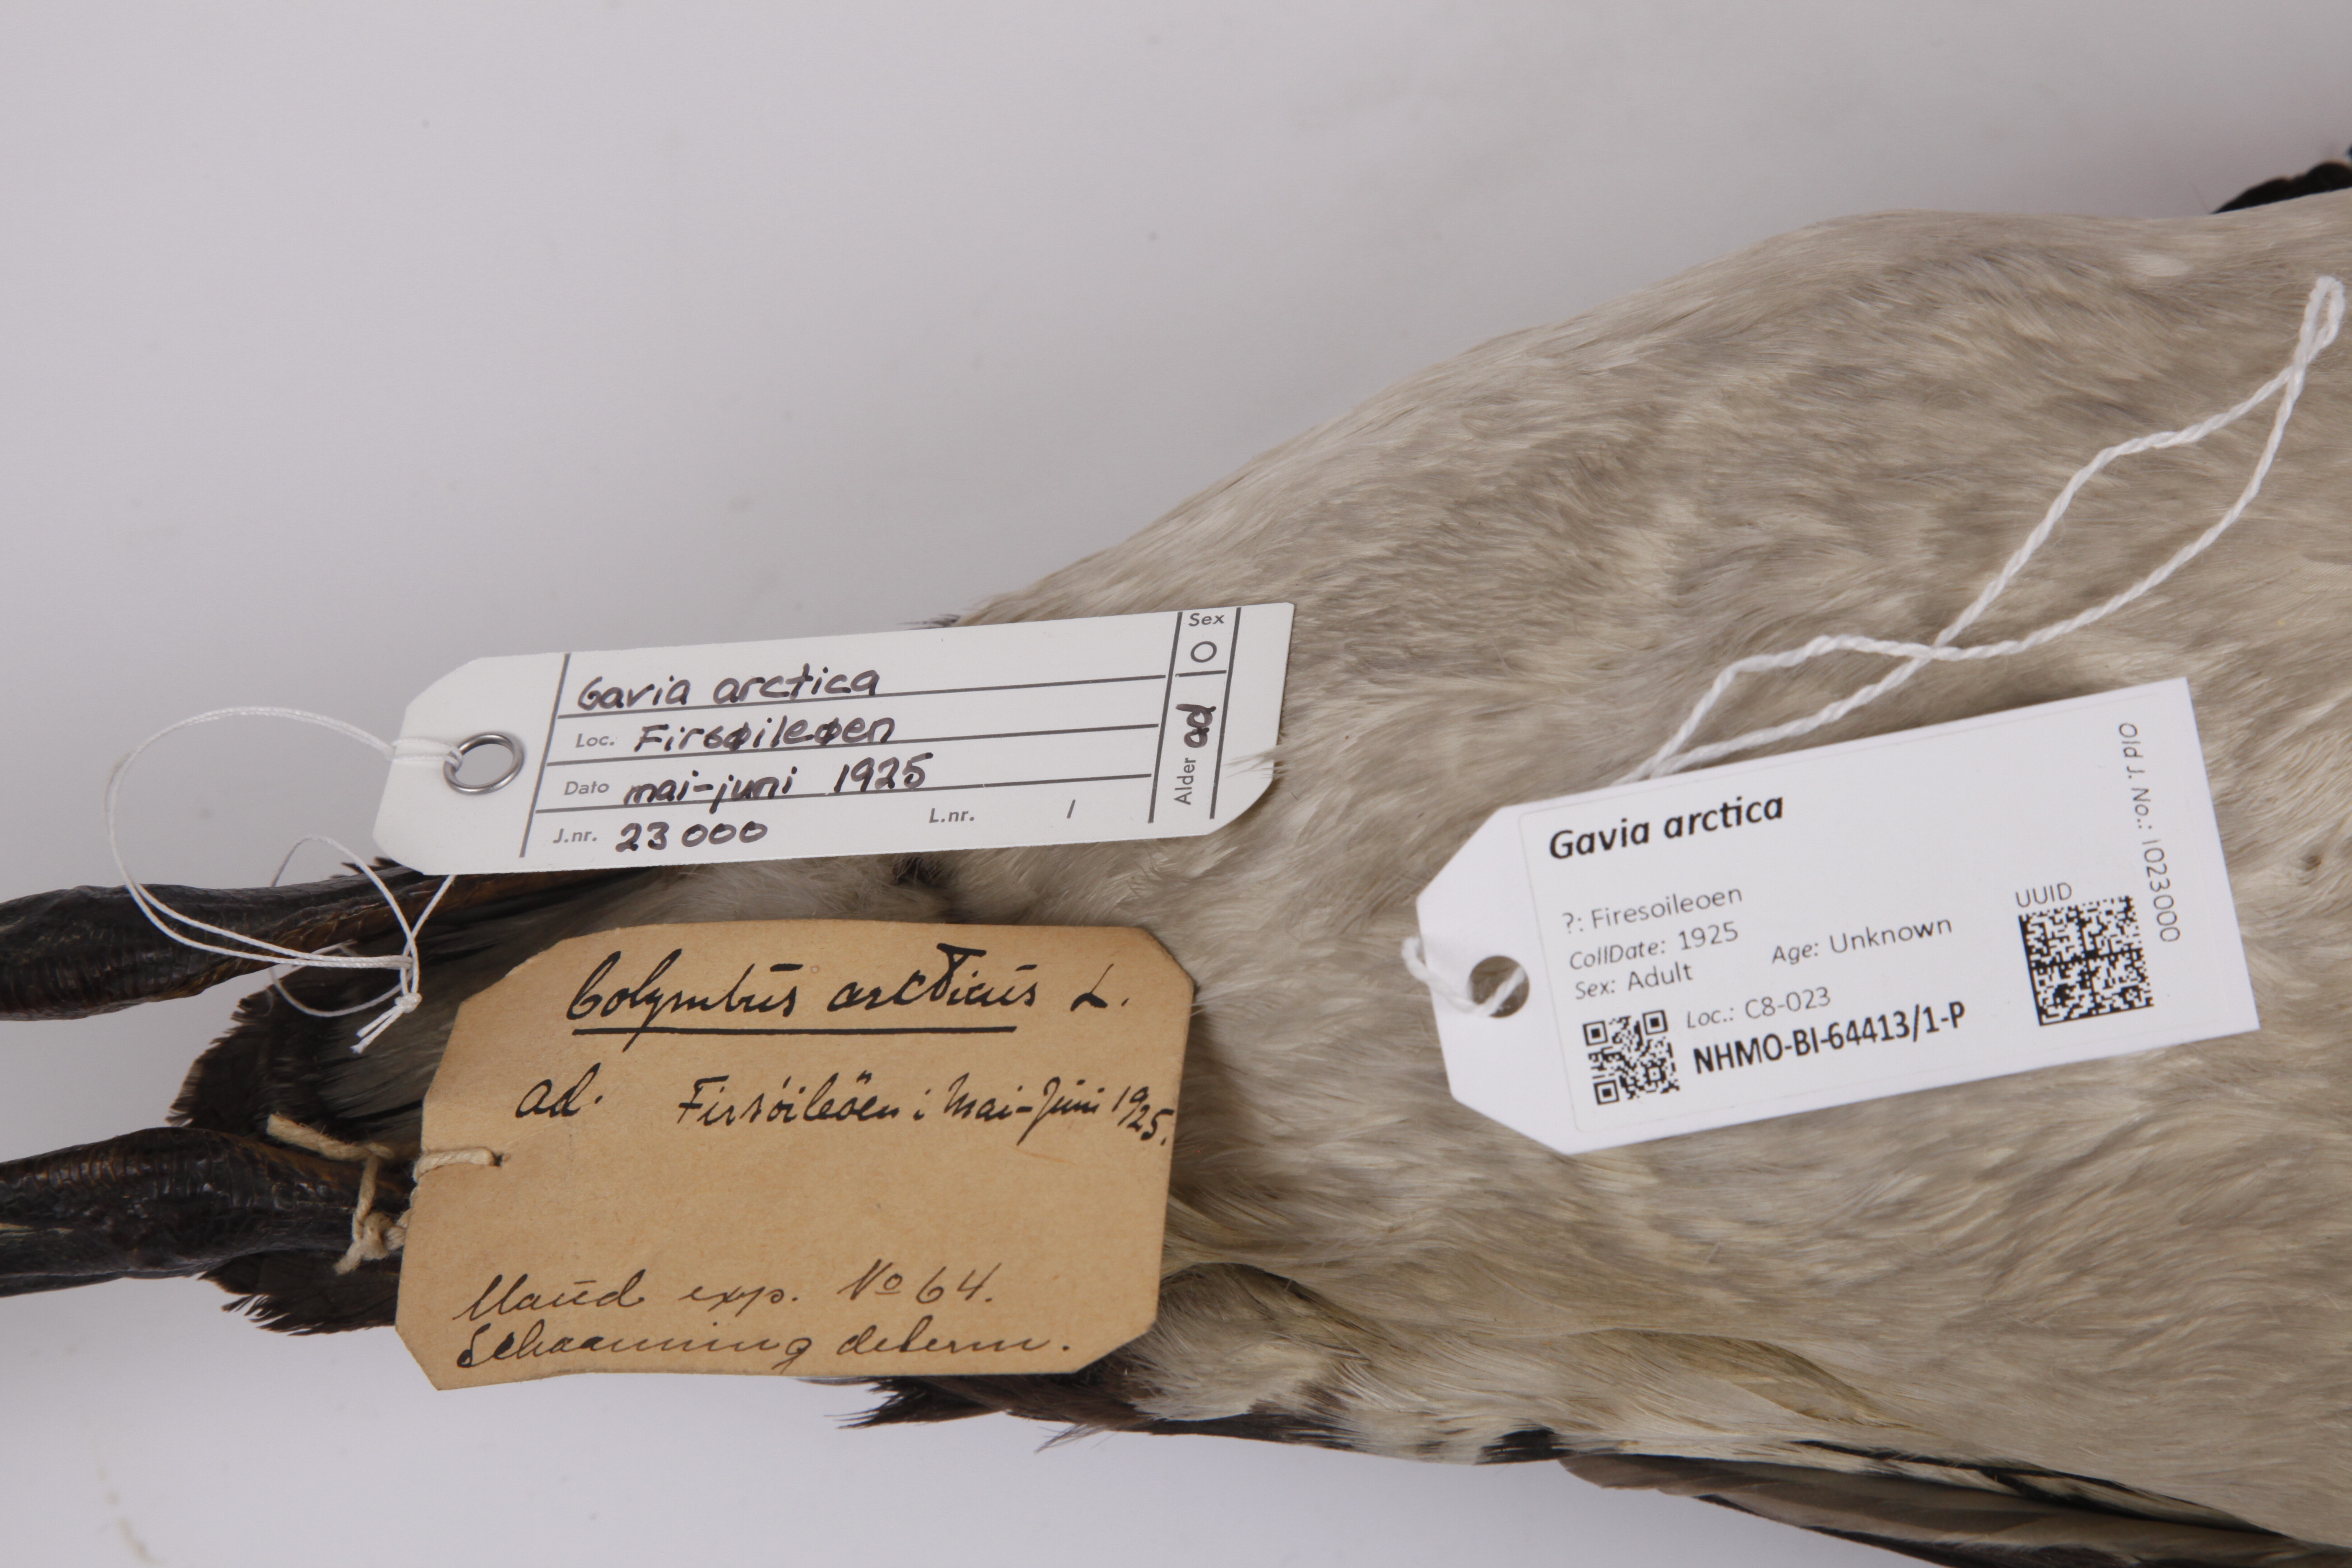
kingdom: Animalia
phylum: Chordata
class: Aves
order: Gaviiformes
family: Gaviidae
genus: Gavia
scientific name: Gavia arctica
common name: Black-throated loon
